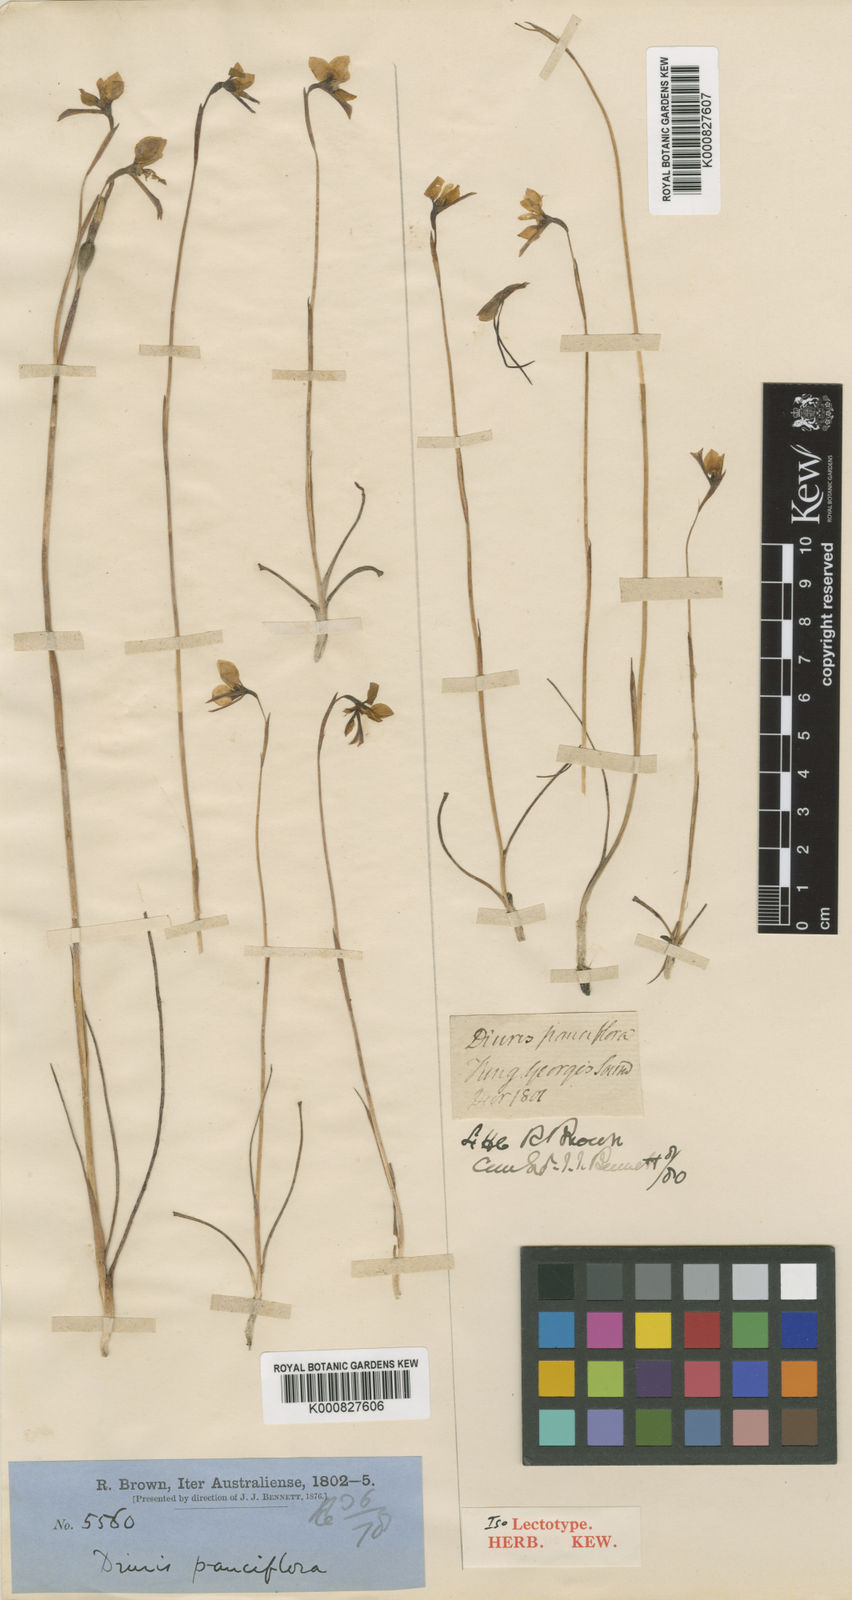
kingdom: Plantae
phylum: Tracheophyta
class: Liliopsida
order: Asparagales
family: Orchidaceae
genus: Diuris
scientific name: Diuris emarginata
